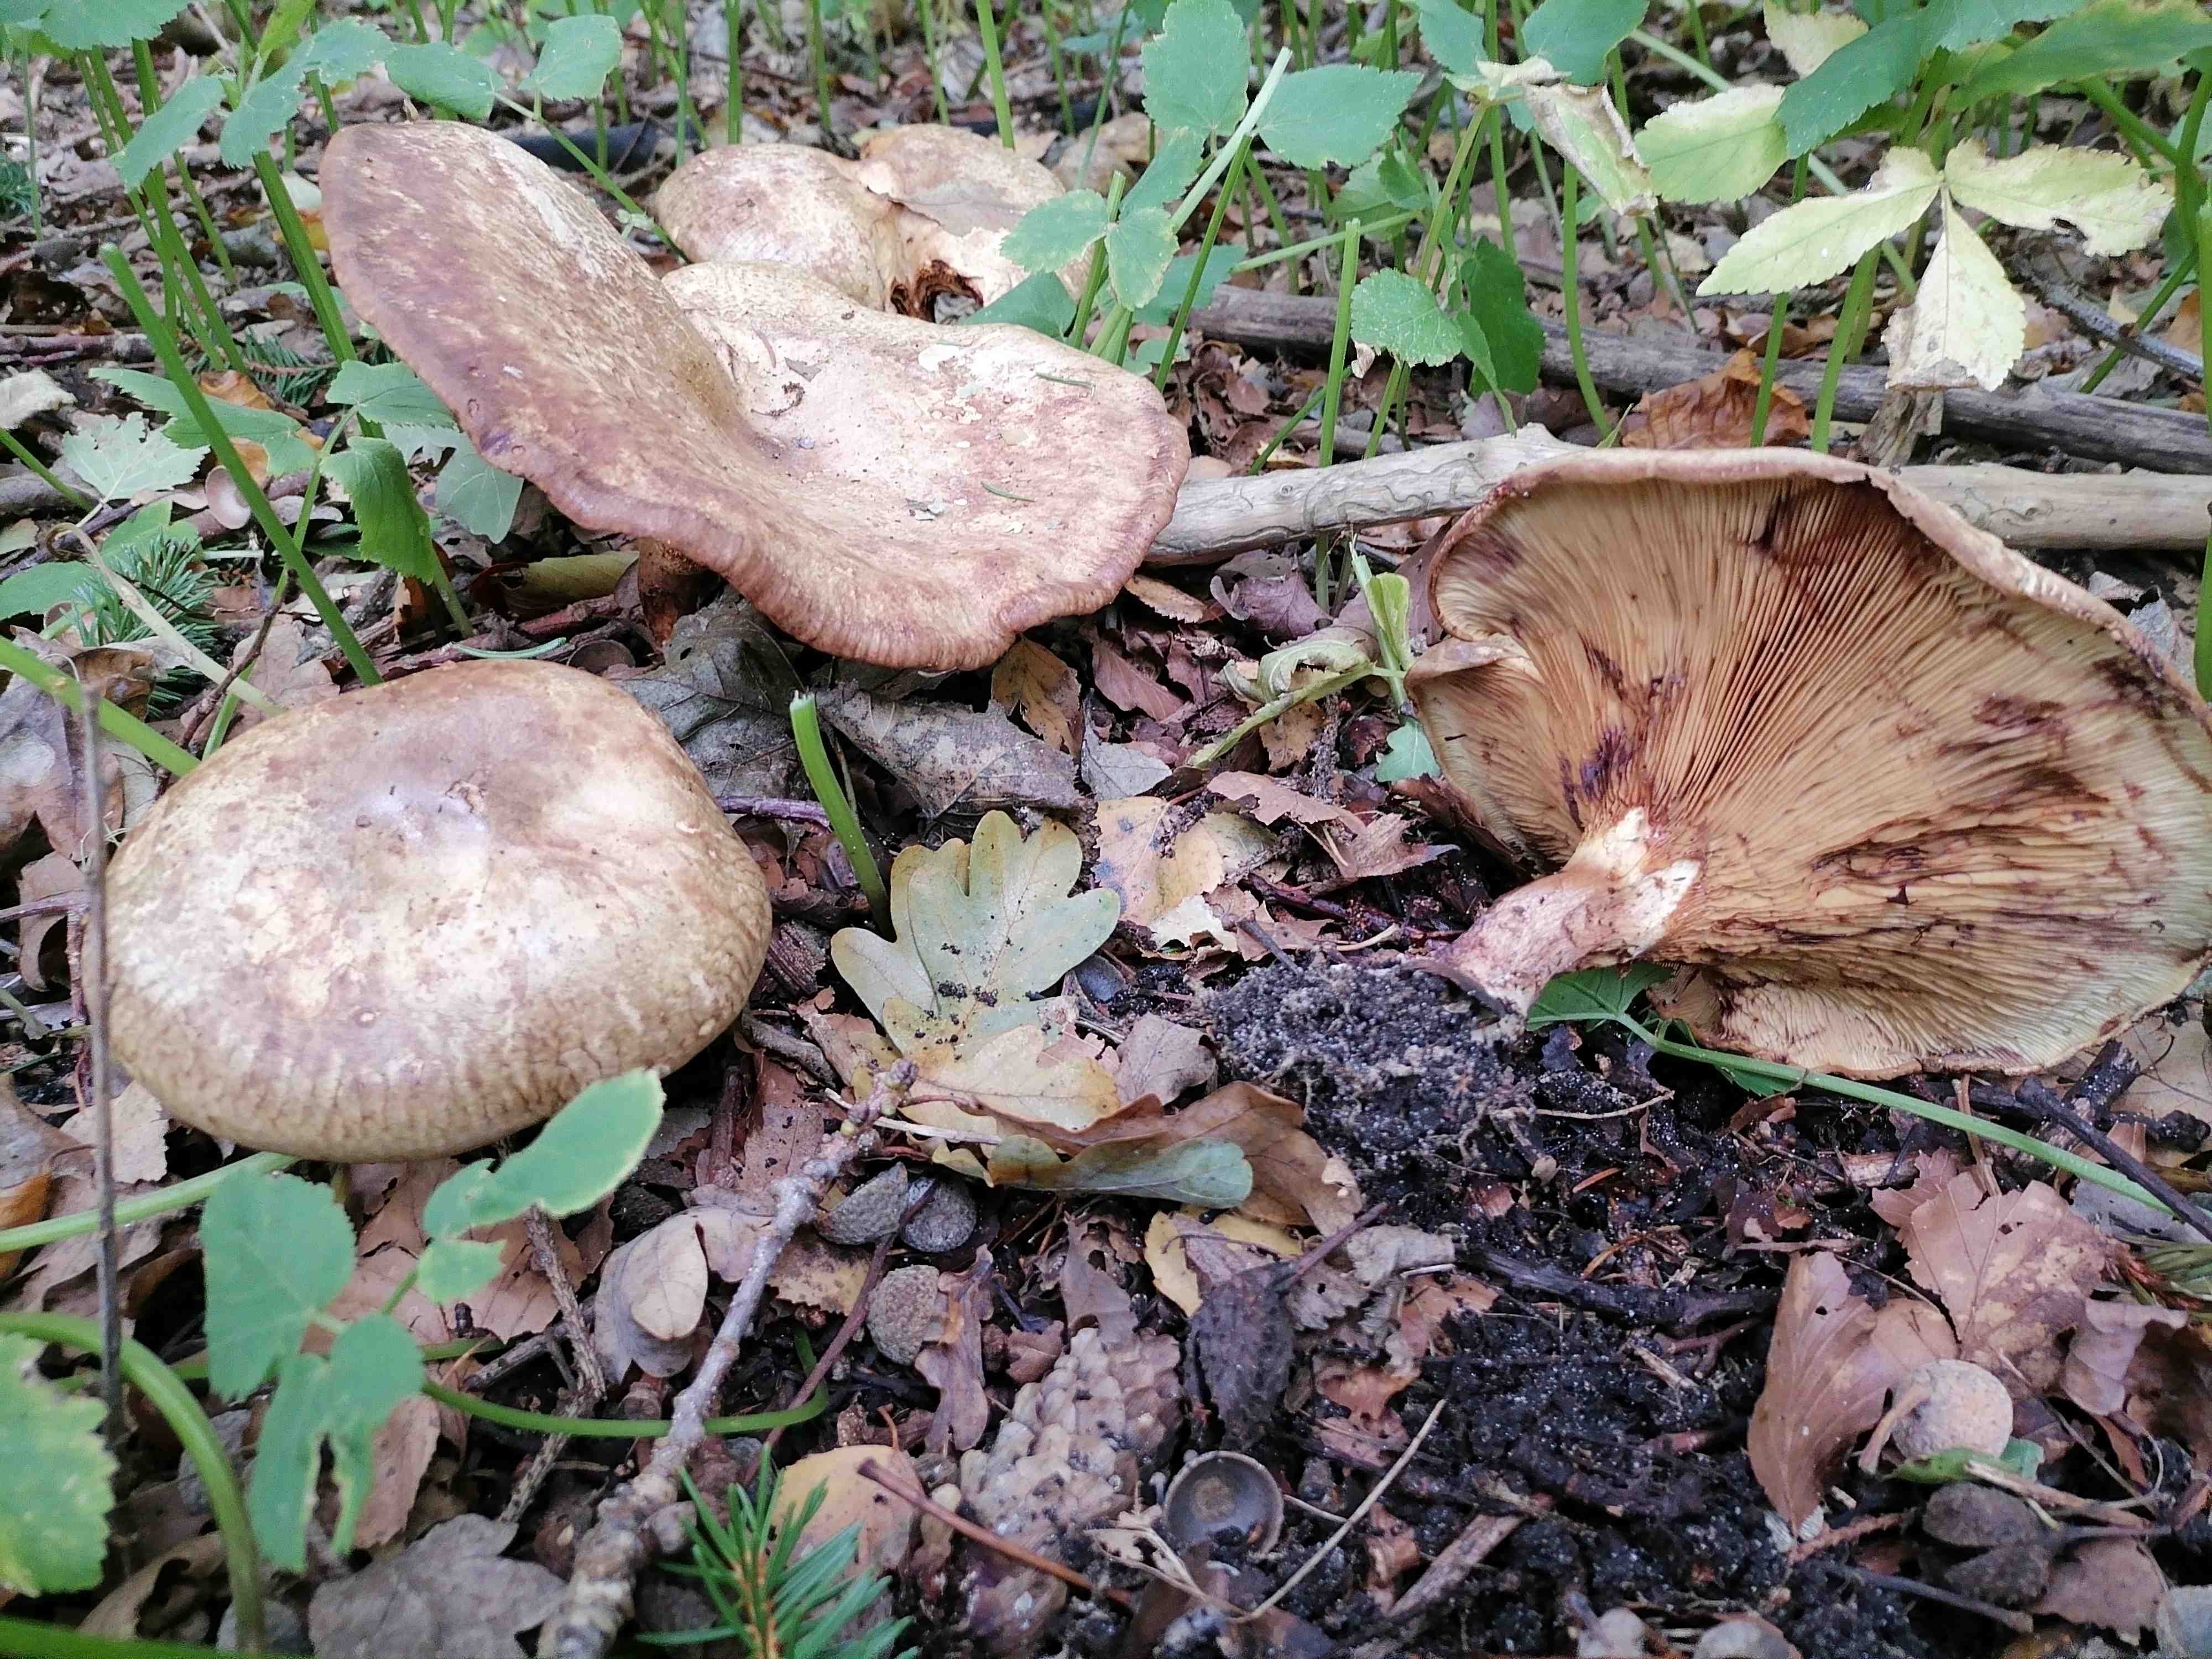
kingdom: Fungi
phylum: Basidiomycota
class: Agaricomycetes
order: Boletales
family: Paxillaceae
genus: Paxillus
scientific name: Paxillus rubicundulus
